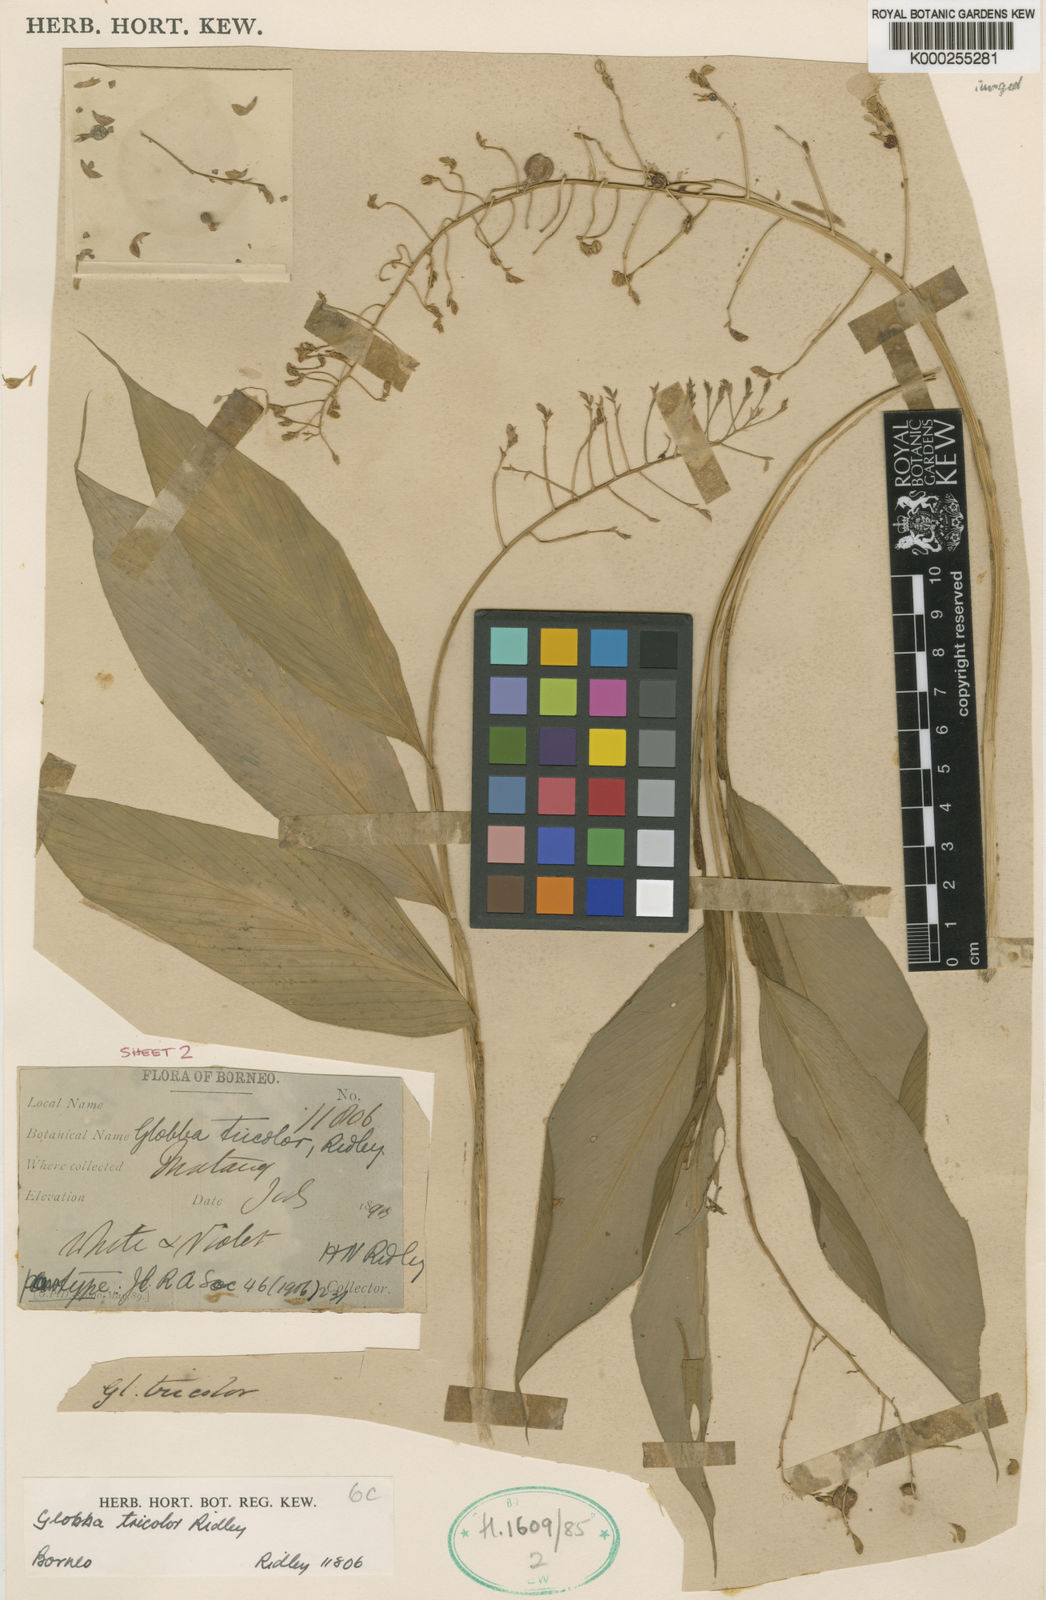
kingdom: Plantae
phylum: Tracheophyta
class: Liliopsida
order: Zingiberales
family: Zingiberaceae
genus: Globba
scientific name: Globba tricolor
